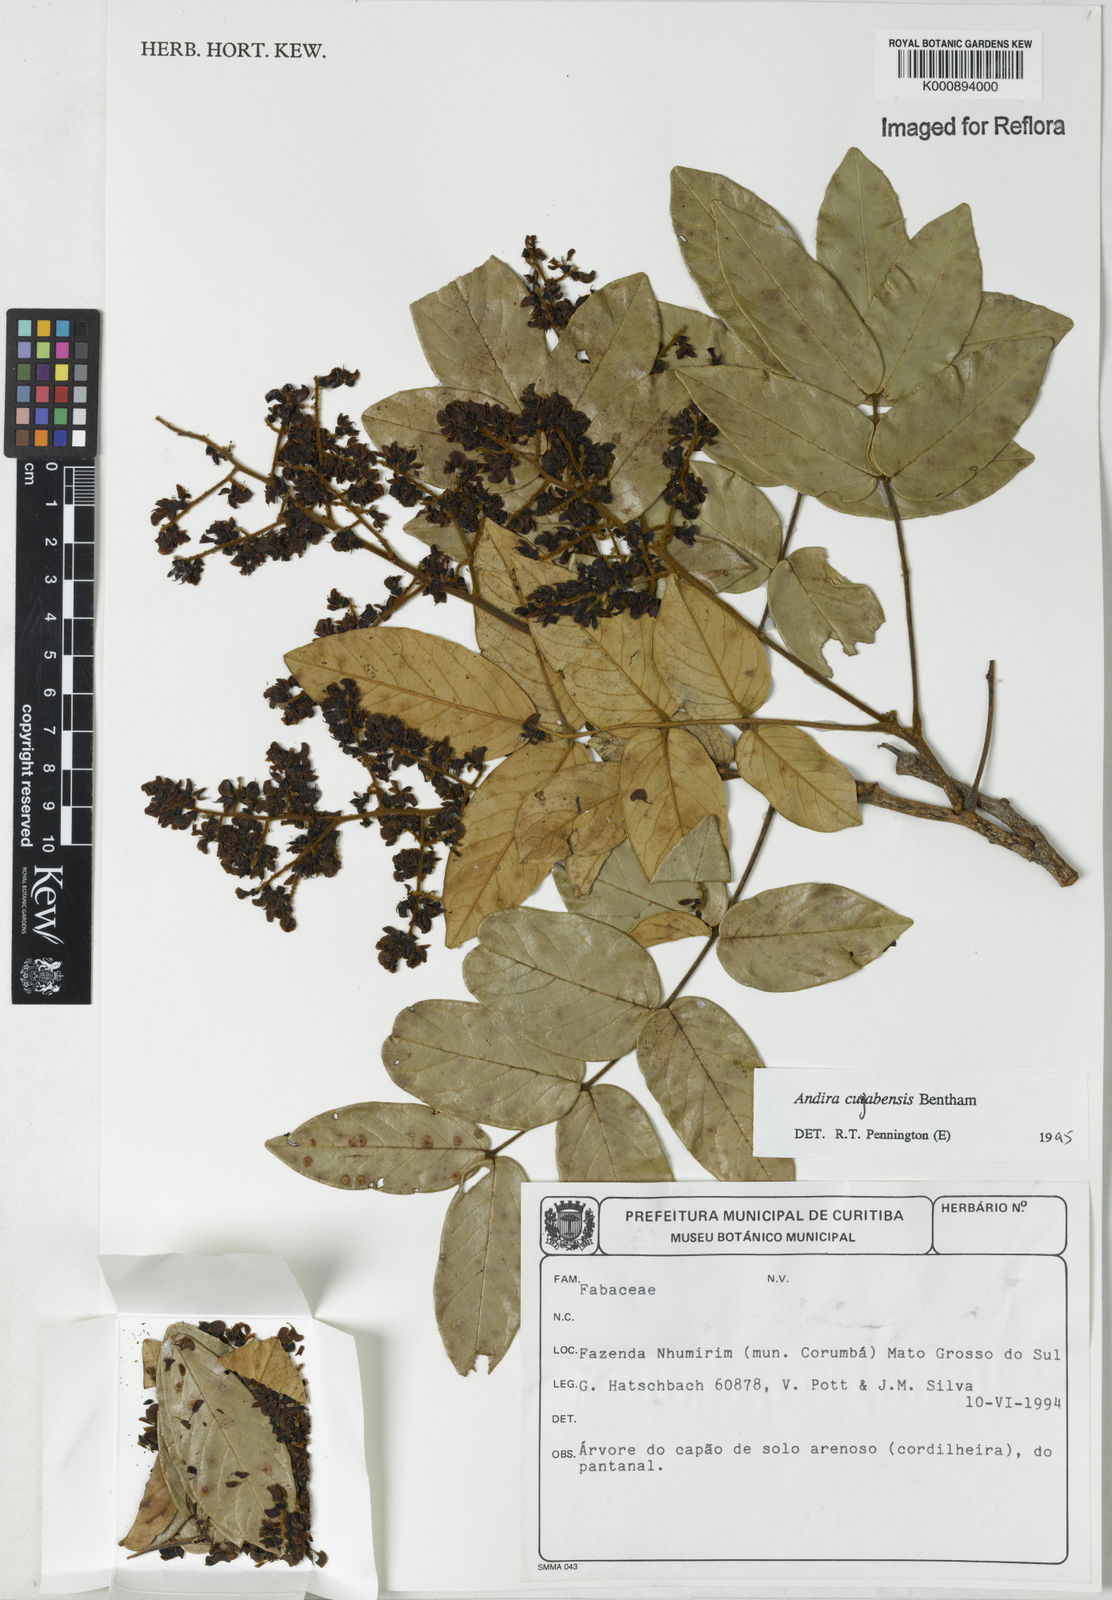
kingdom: Plantae
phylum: Tracheophyta
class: Magnoliopsida
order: Fabales
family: Fabaceae
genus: Andira
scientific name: Andira cujabensis
